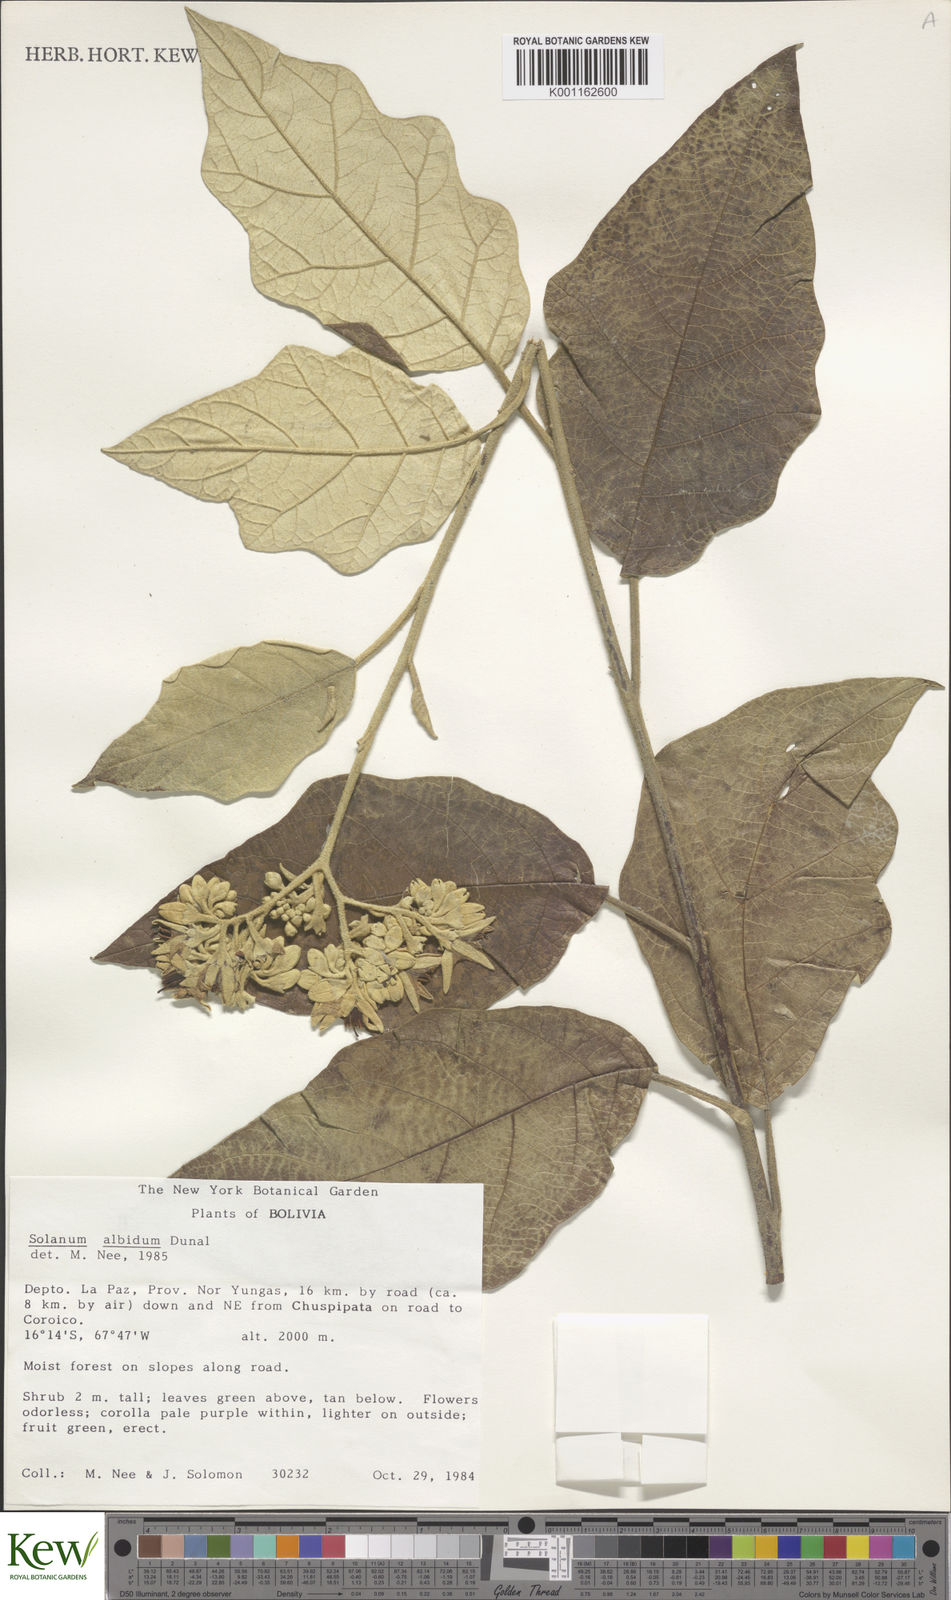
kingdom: Plantae
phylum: Tracheophyta
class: Magnoliopsida
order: Solanales
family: Solanaceae
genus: Solanum
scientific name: Solanum albidum
